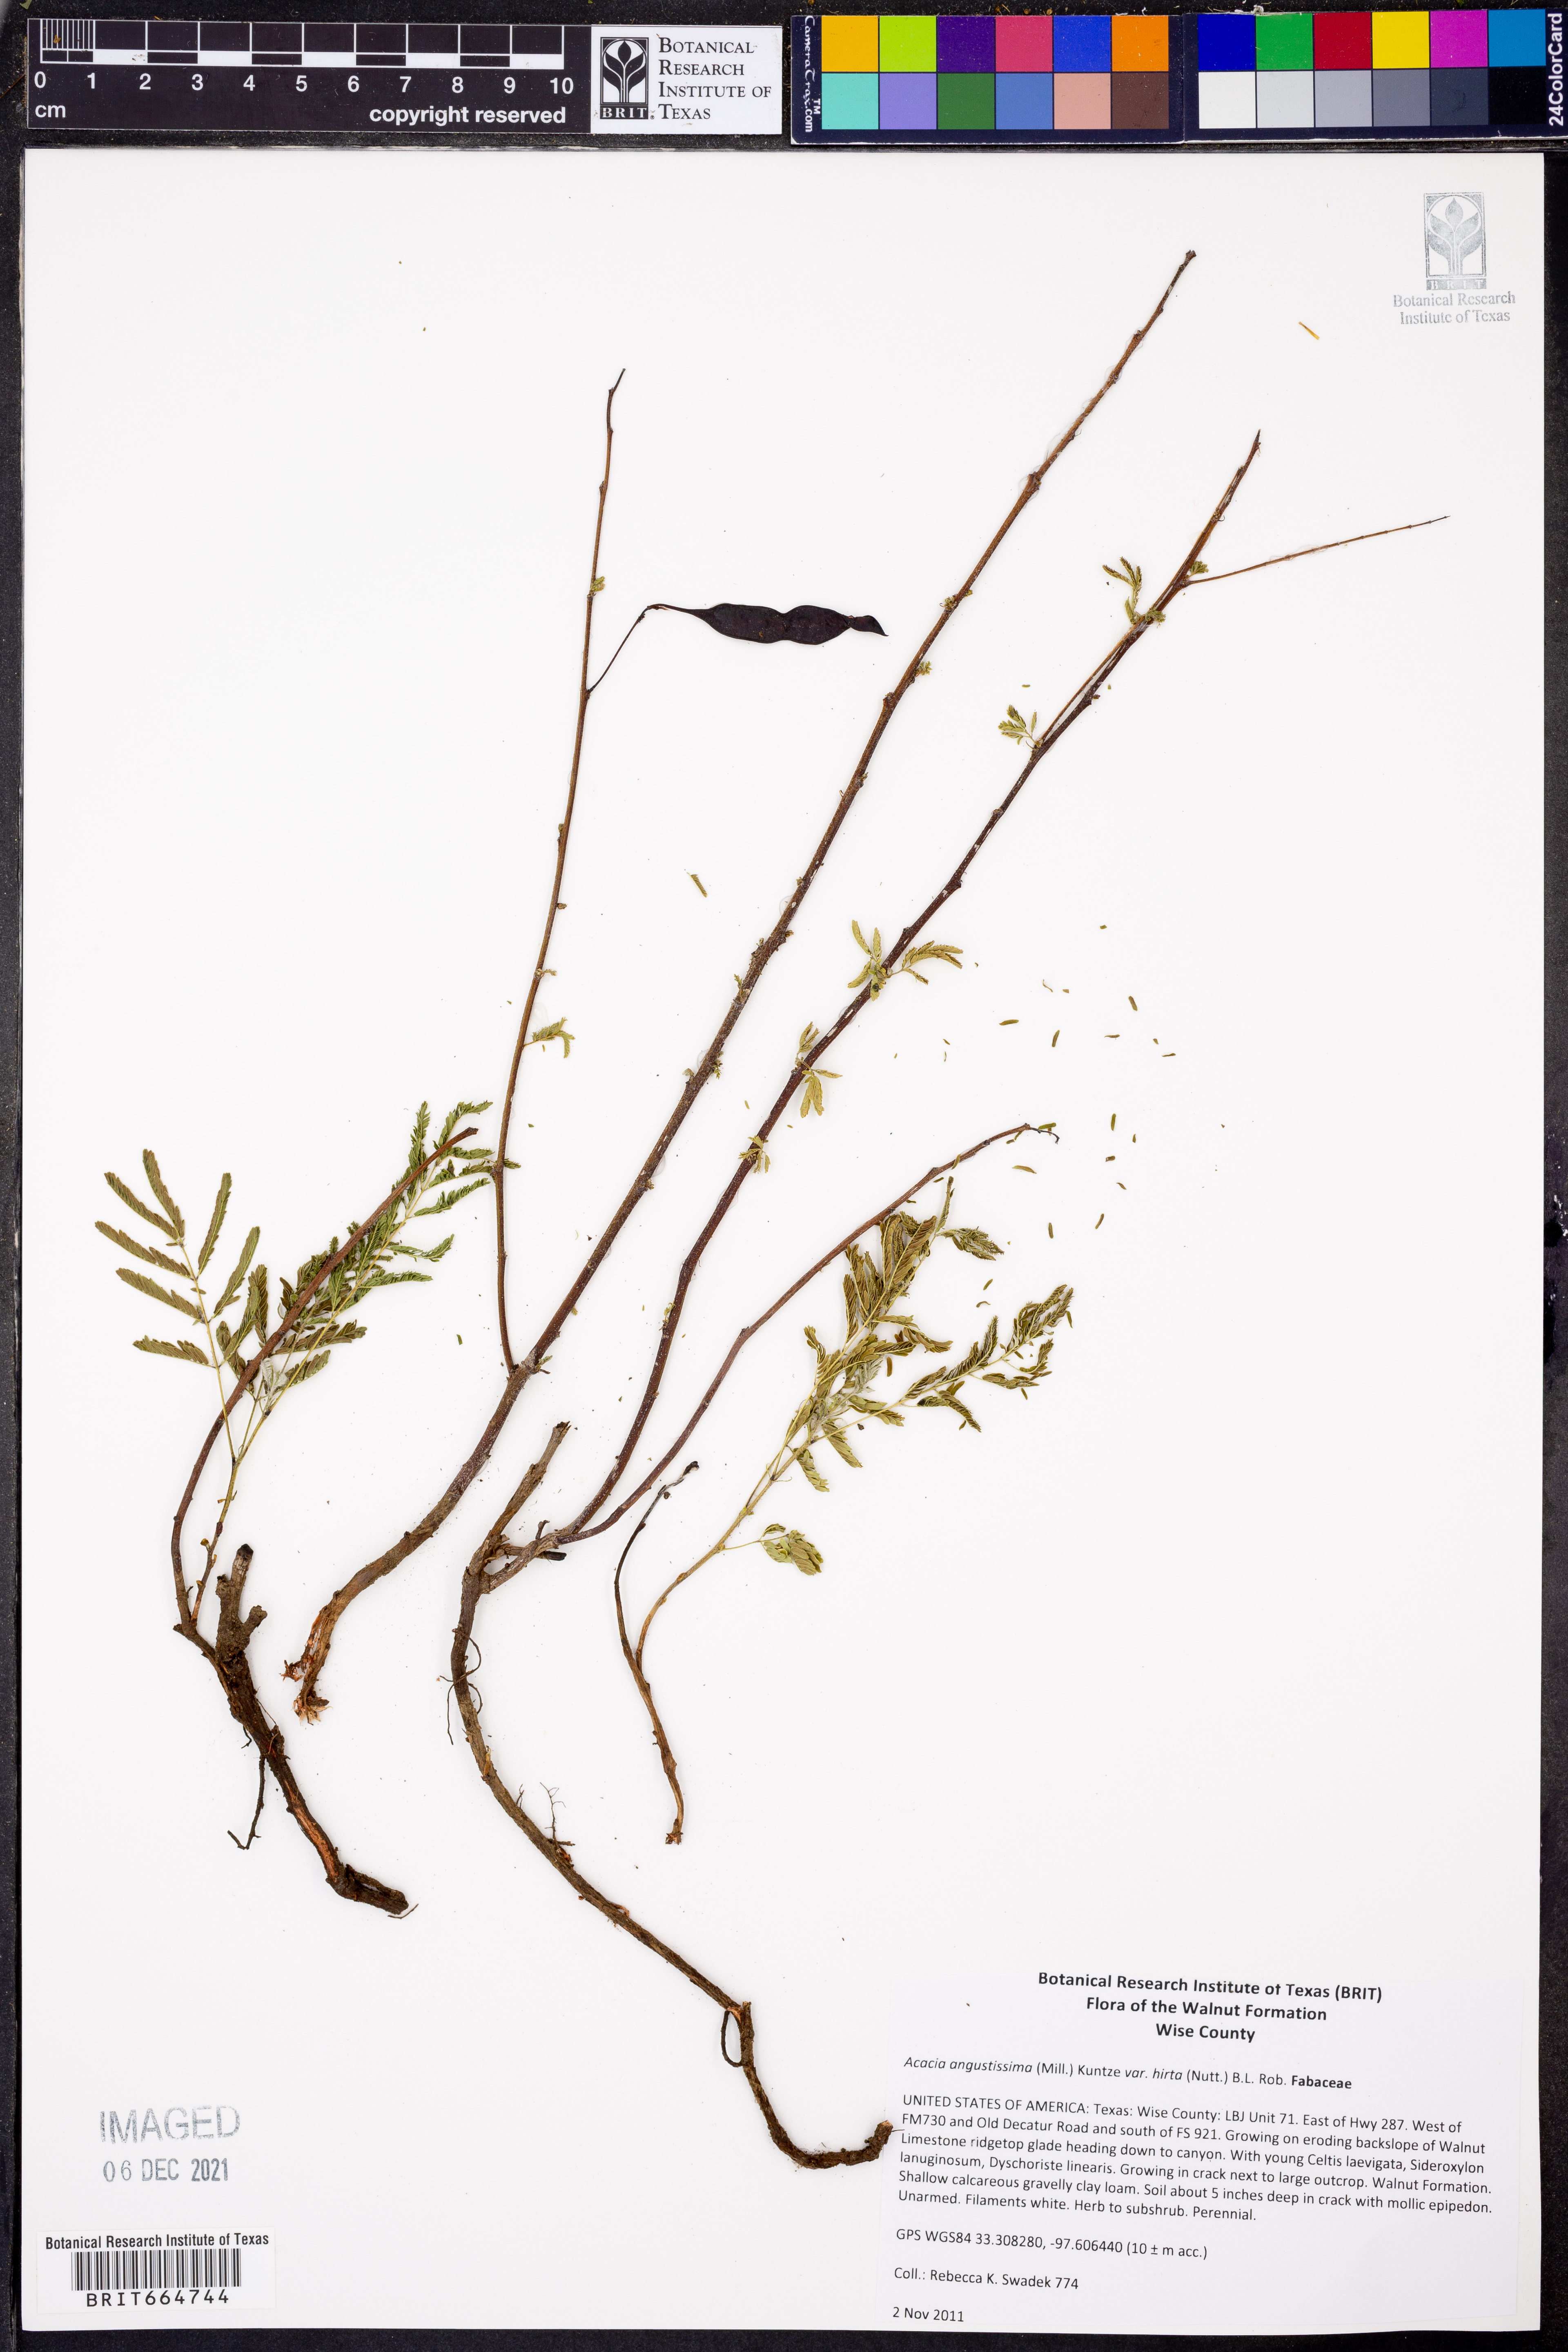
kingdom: Plantae
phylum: Tracheophyta
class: Magnoliopsida
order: Fabales
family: Fabaceae
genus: Acaciella
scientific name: Acaciella angustissima
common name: Prairie acacia
